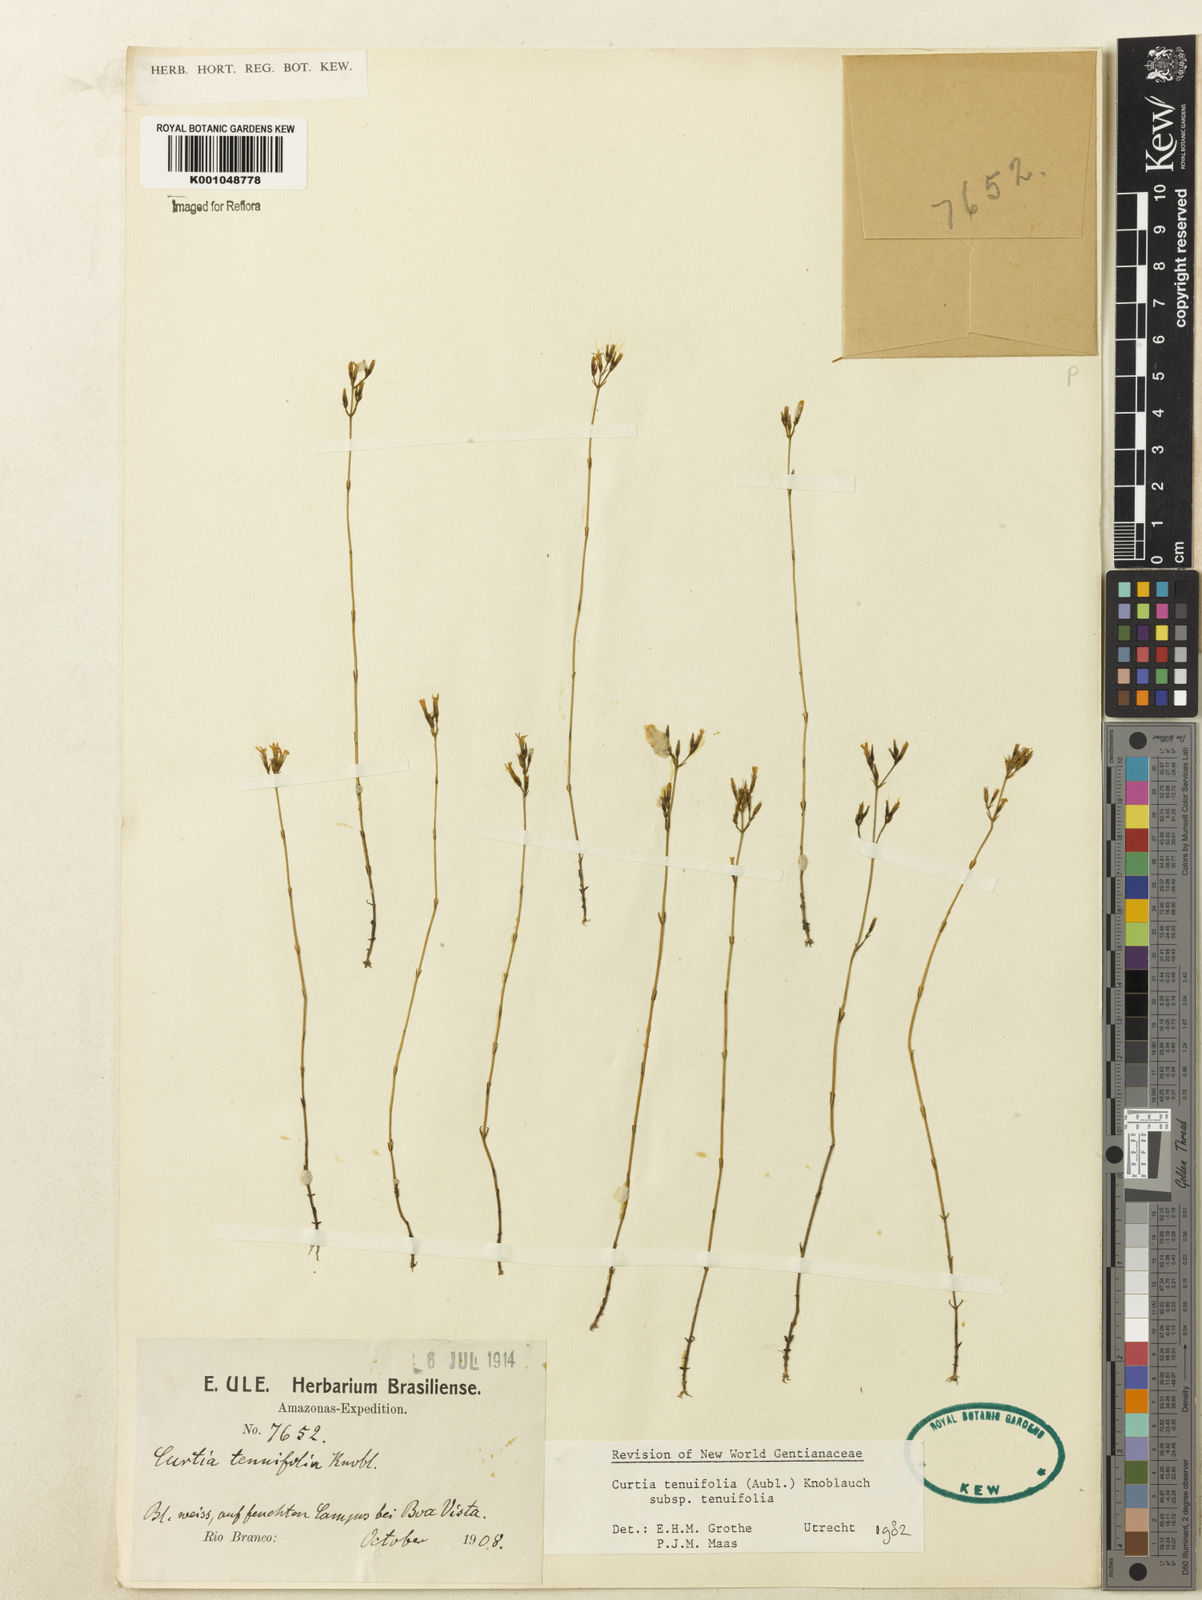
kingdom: Plantae
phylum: Tracheophyta
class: Magnoliopsida
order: Gentianales
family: Gentianaceae
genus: Curtia
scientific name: Curtia tenuifolia
